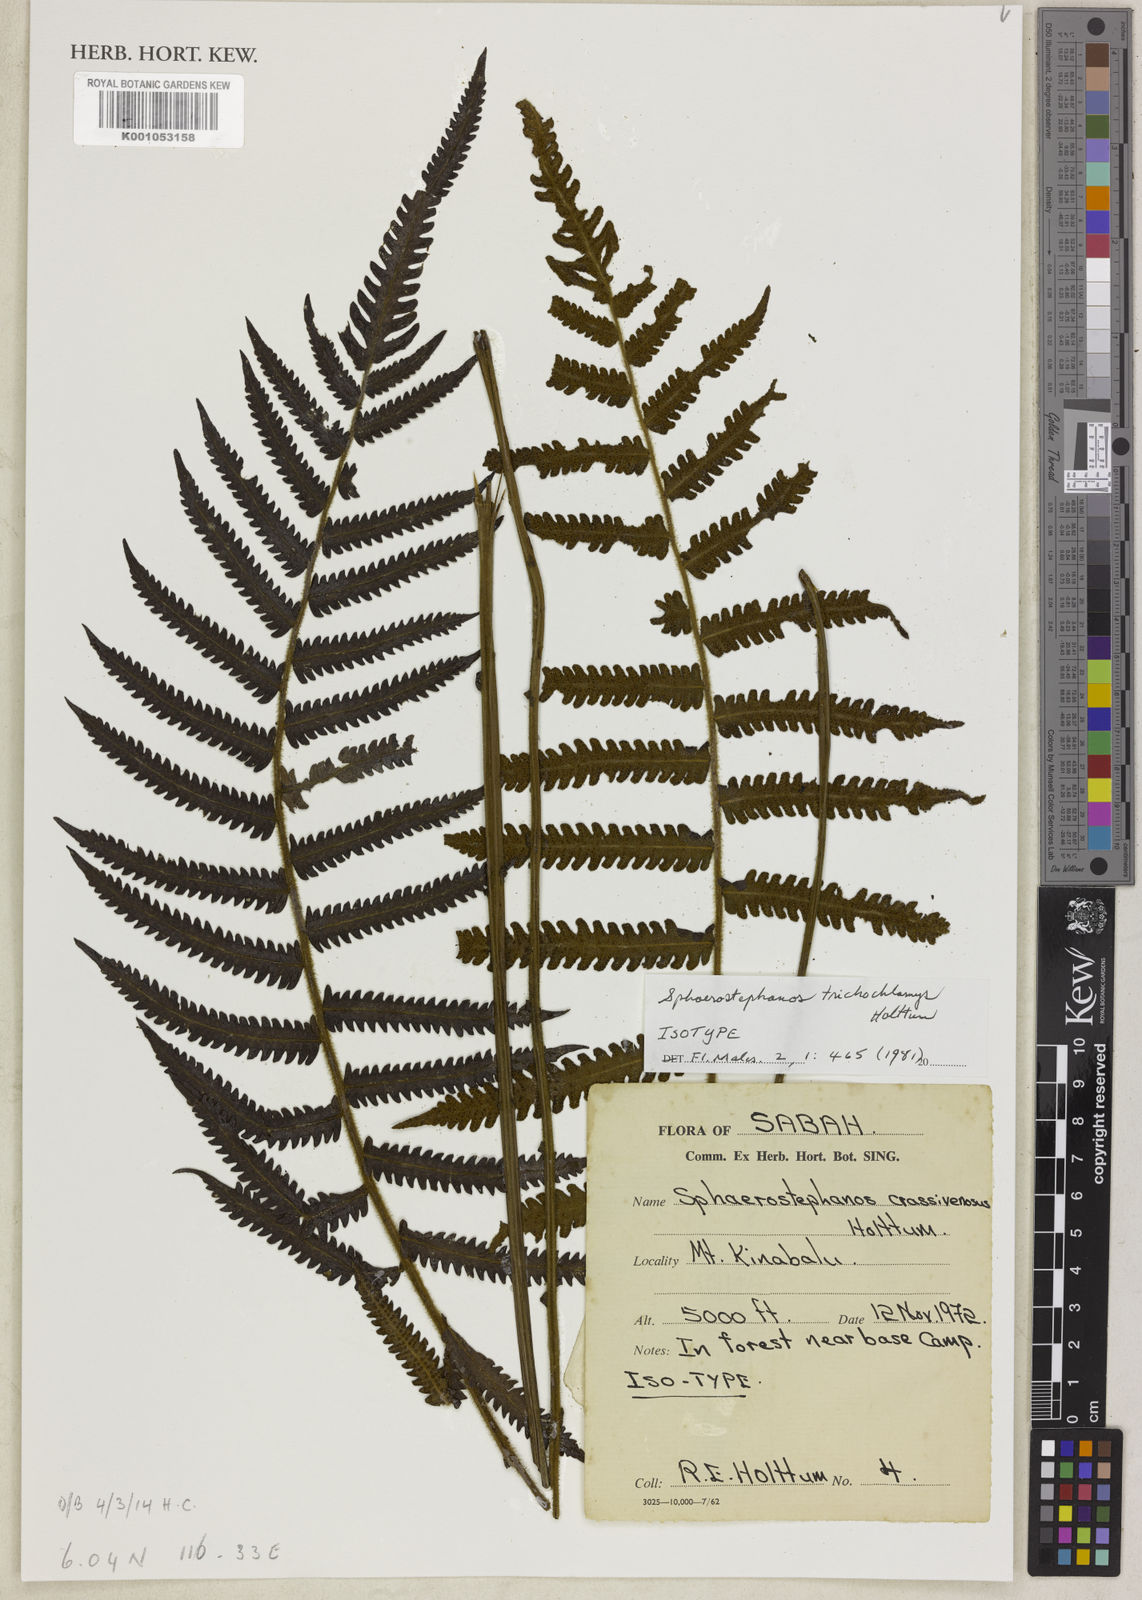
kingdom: Plantae
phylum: Tracheophyta
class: Polypodiopsida
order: Polypodiales
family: Thelypteridaceae
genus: Sphaerostephanos
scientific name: Sphaerostephanos trichochlamys
